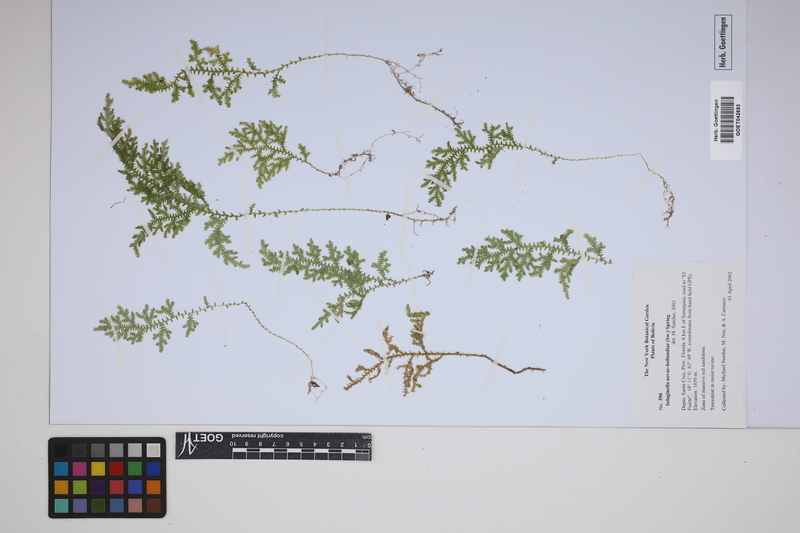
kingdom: Plantae
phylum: Tracheophyta
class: Lycopodiopsida
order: Selaginellales
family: Selaginellaceae
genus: Selaginella
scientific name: Selaginella novae-hollandiae
